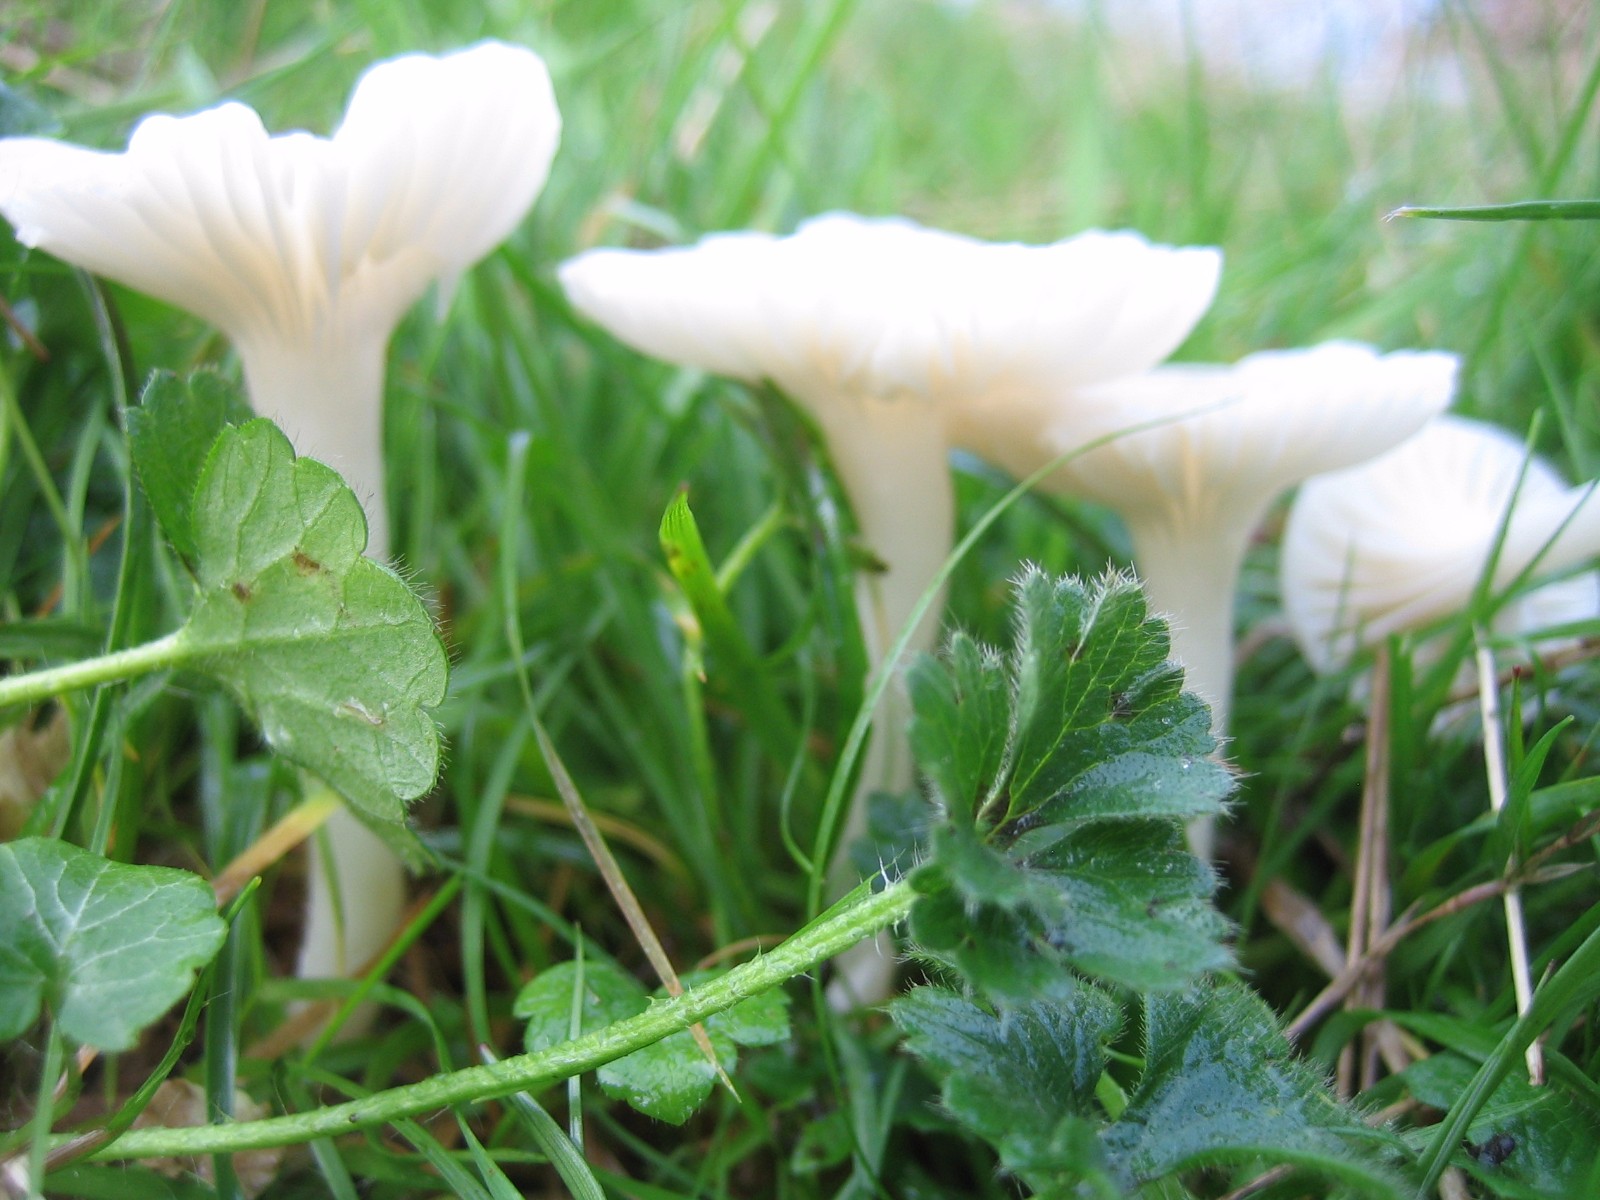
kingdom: Fungi
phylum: Basidiomycota
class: Agaricomycetes
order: Agaricales
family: Hygrophoraceae
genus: Cuphophyllus
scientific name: Cuphophyllus virgineus
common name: snehvid vokshat
